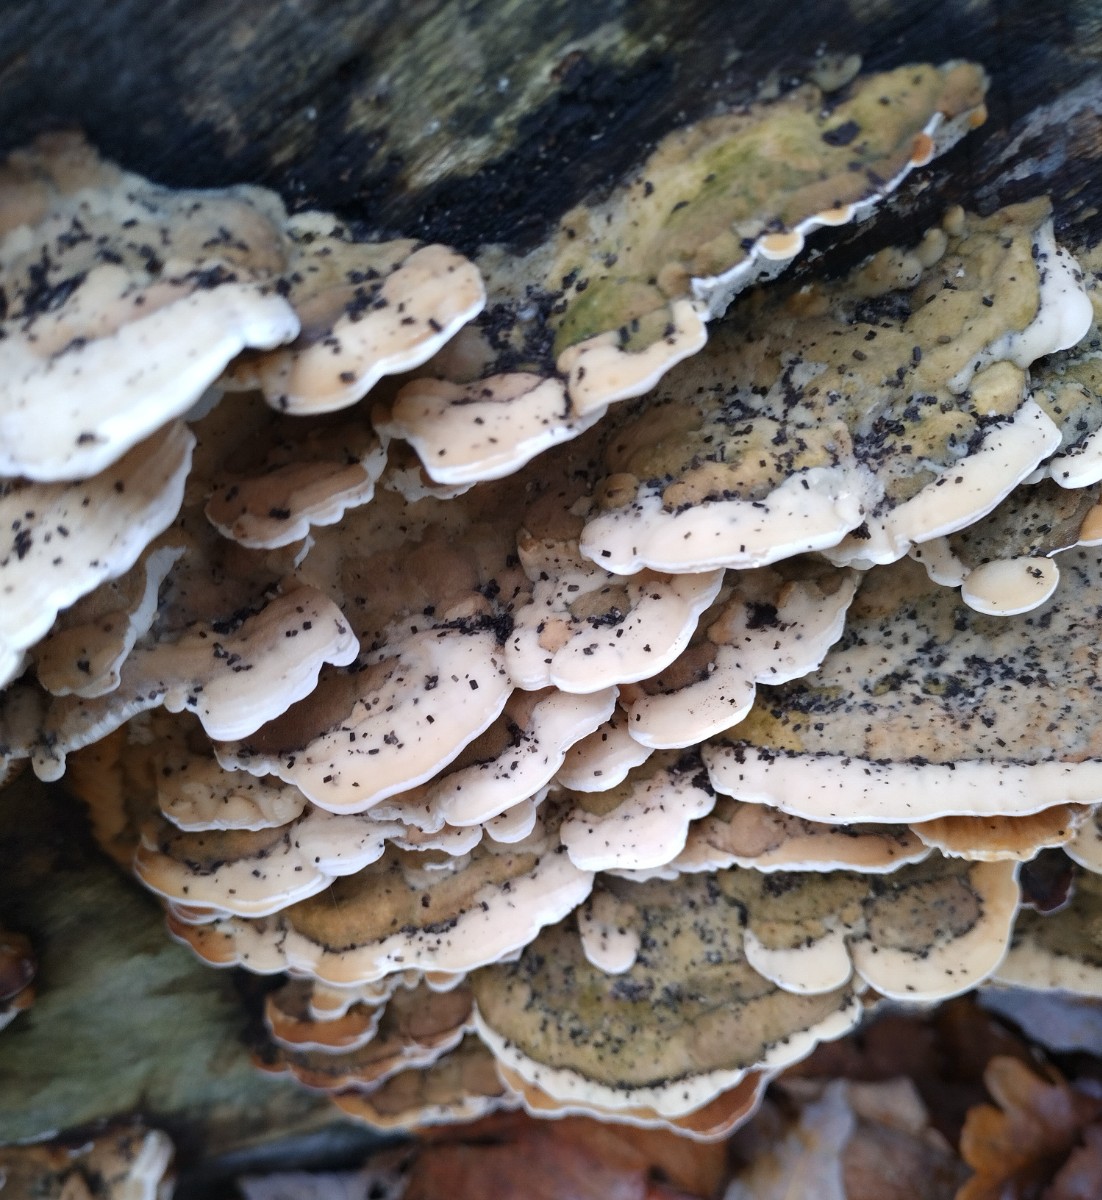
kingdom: Fungi
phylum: Basidiomycota
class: Agaricomycetes
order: Hymenochaetales
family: Oxyporaceae
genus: Oxyporus
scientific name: Oxyporus populinus
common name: sammenvokset trylleporesvamp
